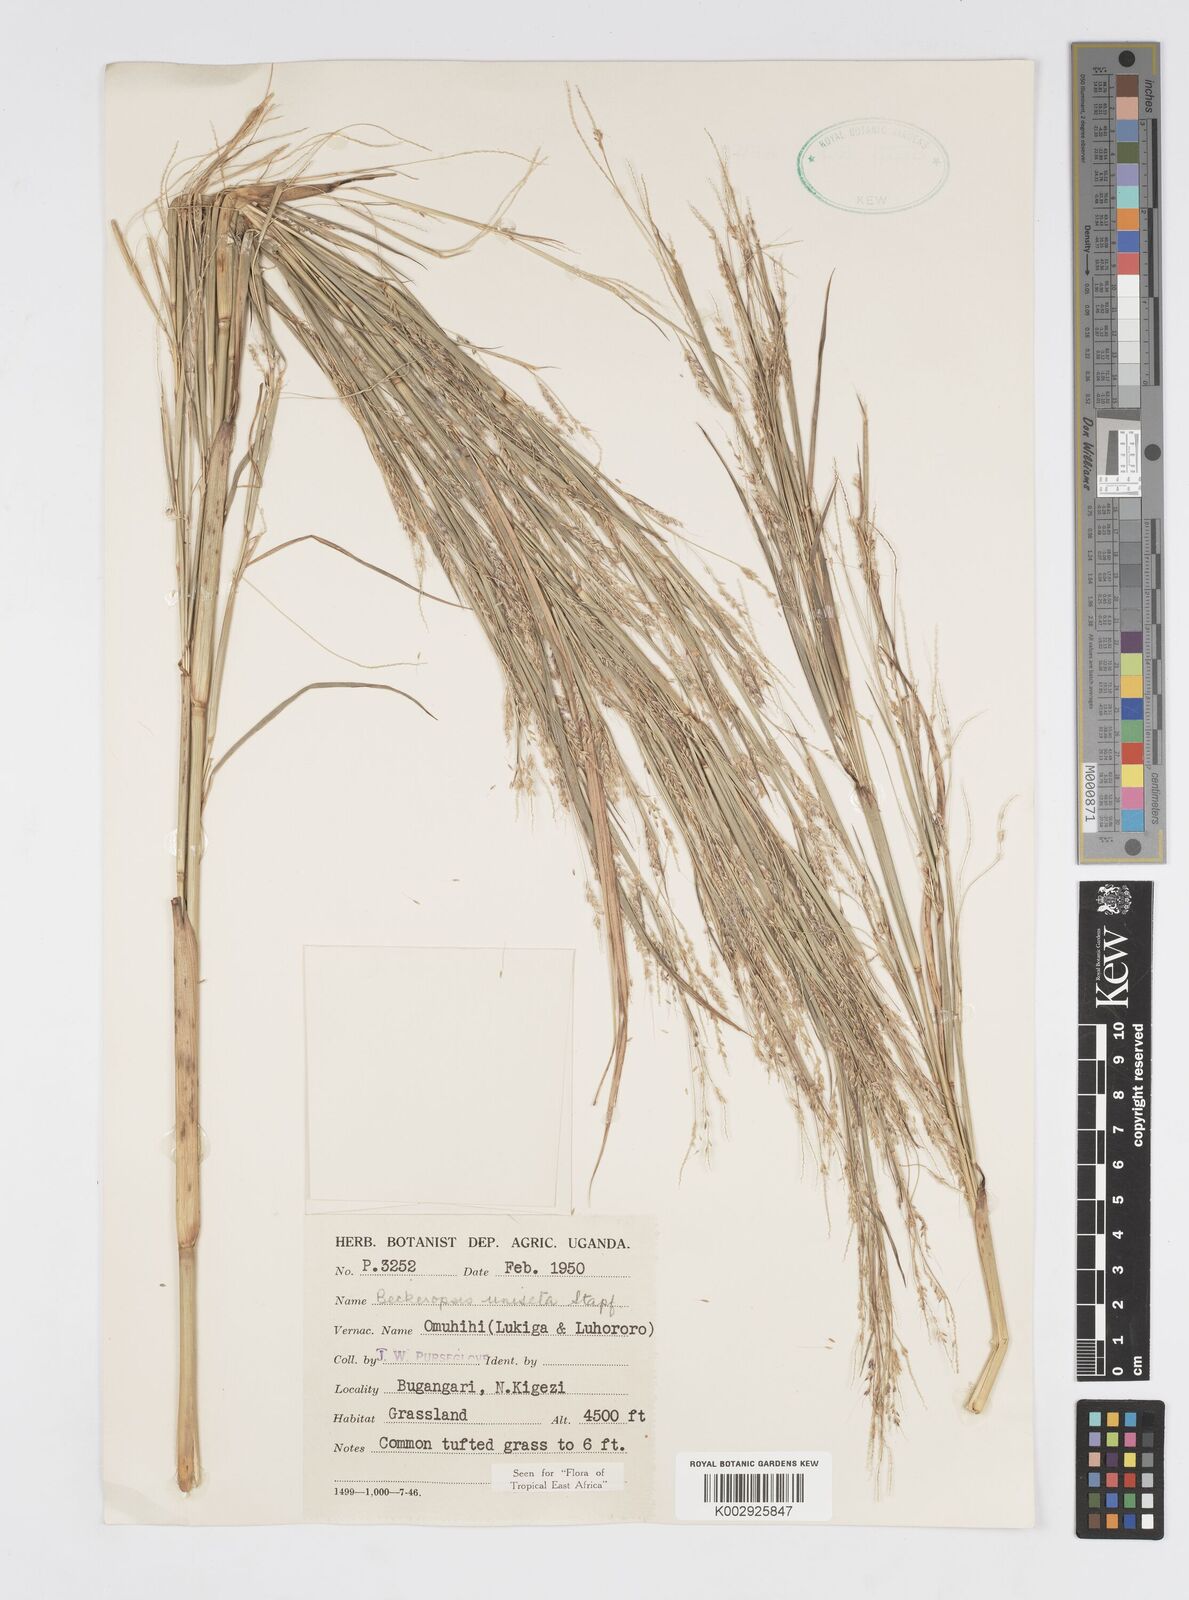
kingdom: Plantae
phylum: Tracheophyta
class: Liliopsida
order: Poales
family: Poaceae
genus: Cenchrus
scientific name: Cenchrus unisetus
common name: Natal grass
